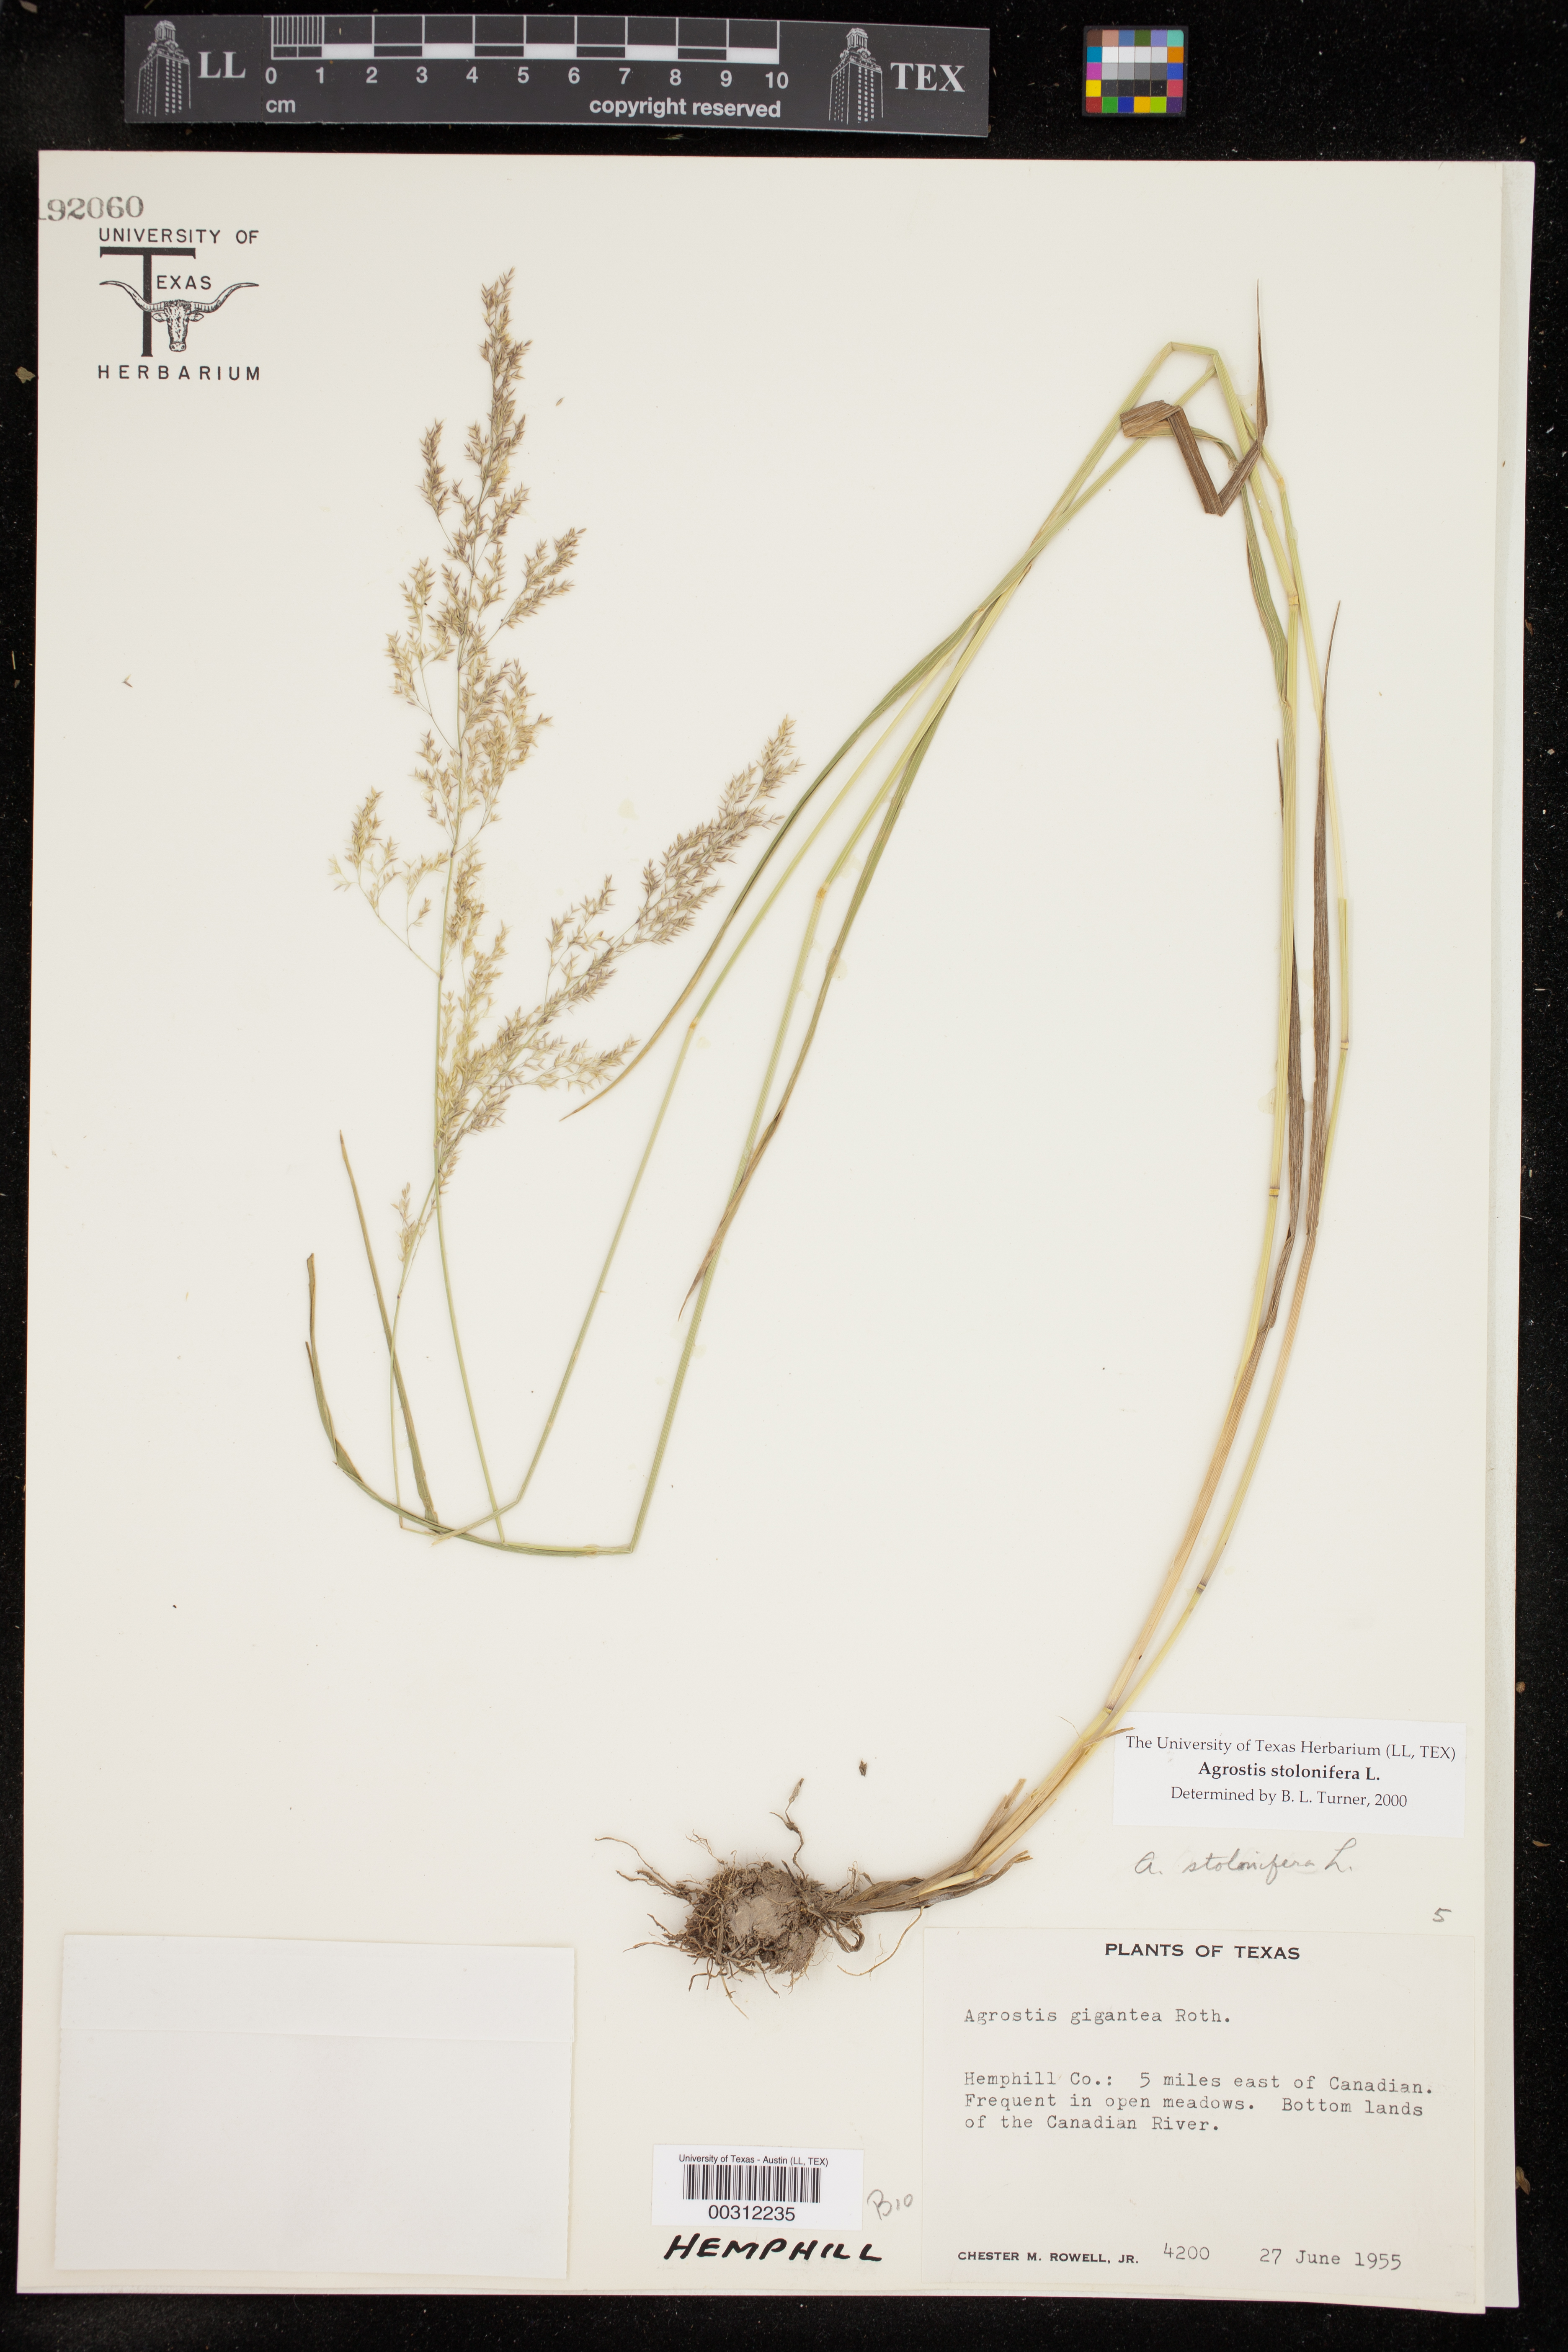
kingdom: Plantae
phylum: Tracheophyta
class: Liliopsida
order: Poales
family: Poaceae
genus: Agrostis
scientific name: Agrostis stolonifera
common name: Creeping bentgrass
